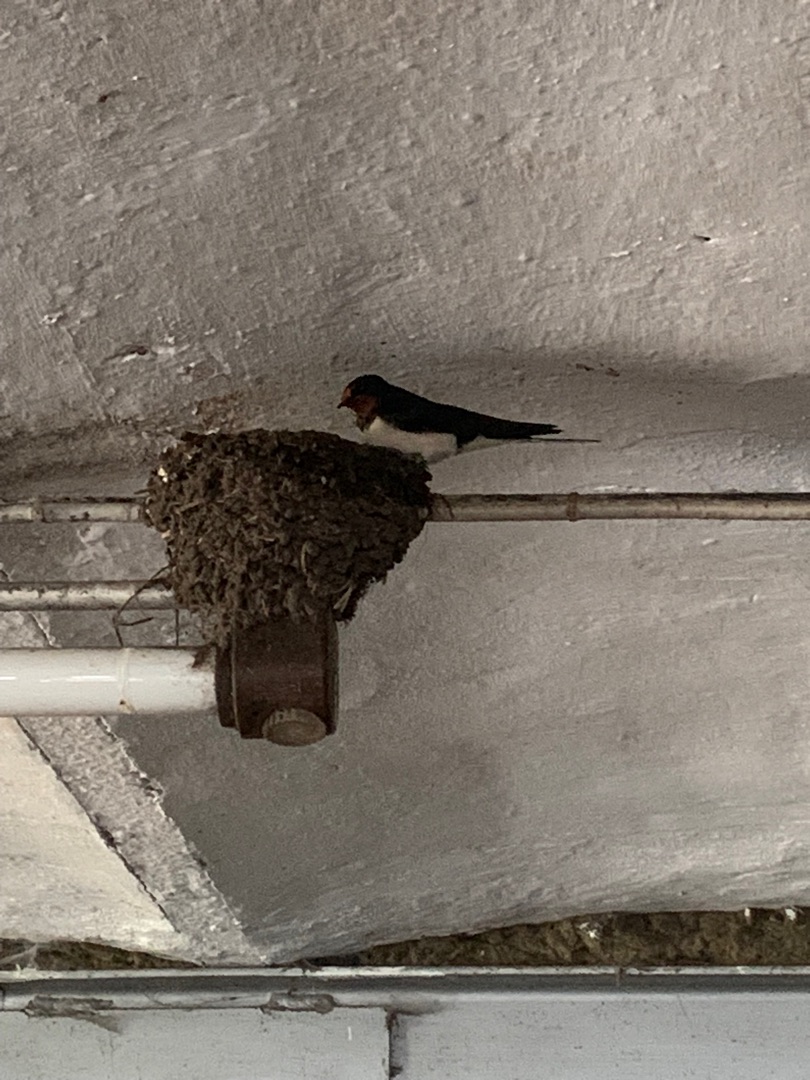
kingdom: Animalia
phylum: Chordata
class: Aves
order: Passeriformes
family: Hirundinidae
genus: Hirundo
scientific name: Hirundo rustica
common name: Landsvale
